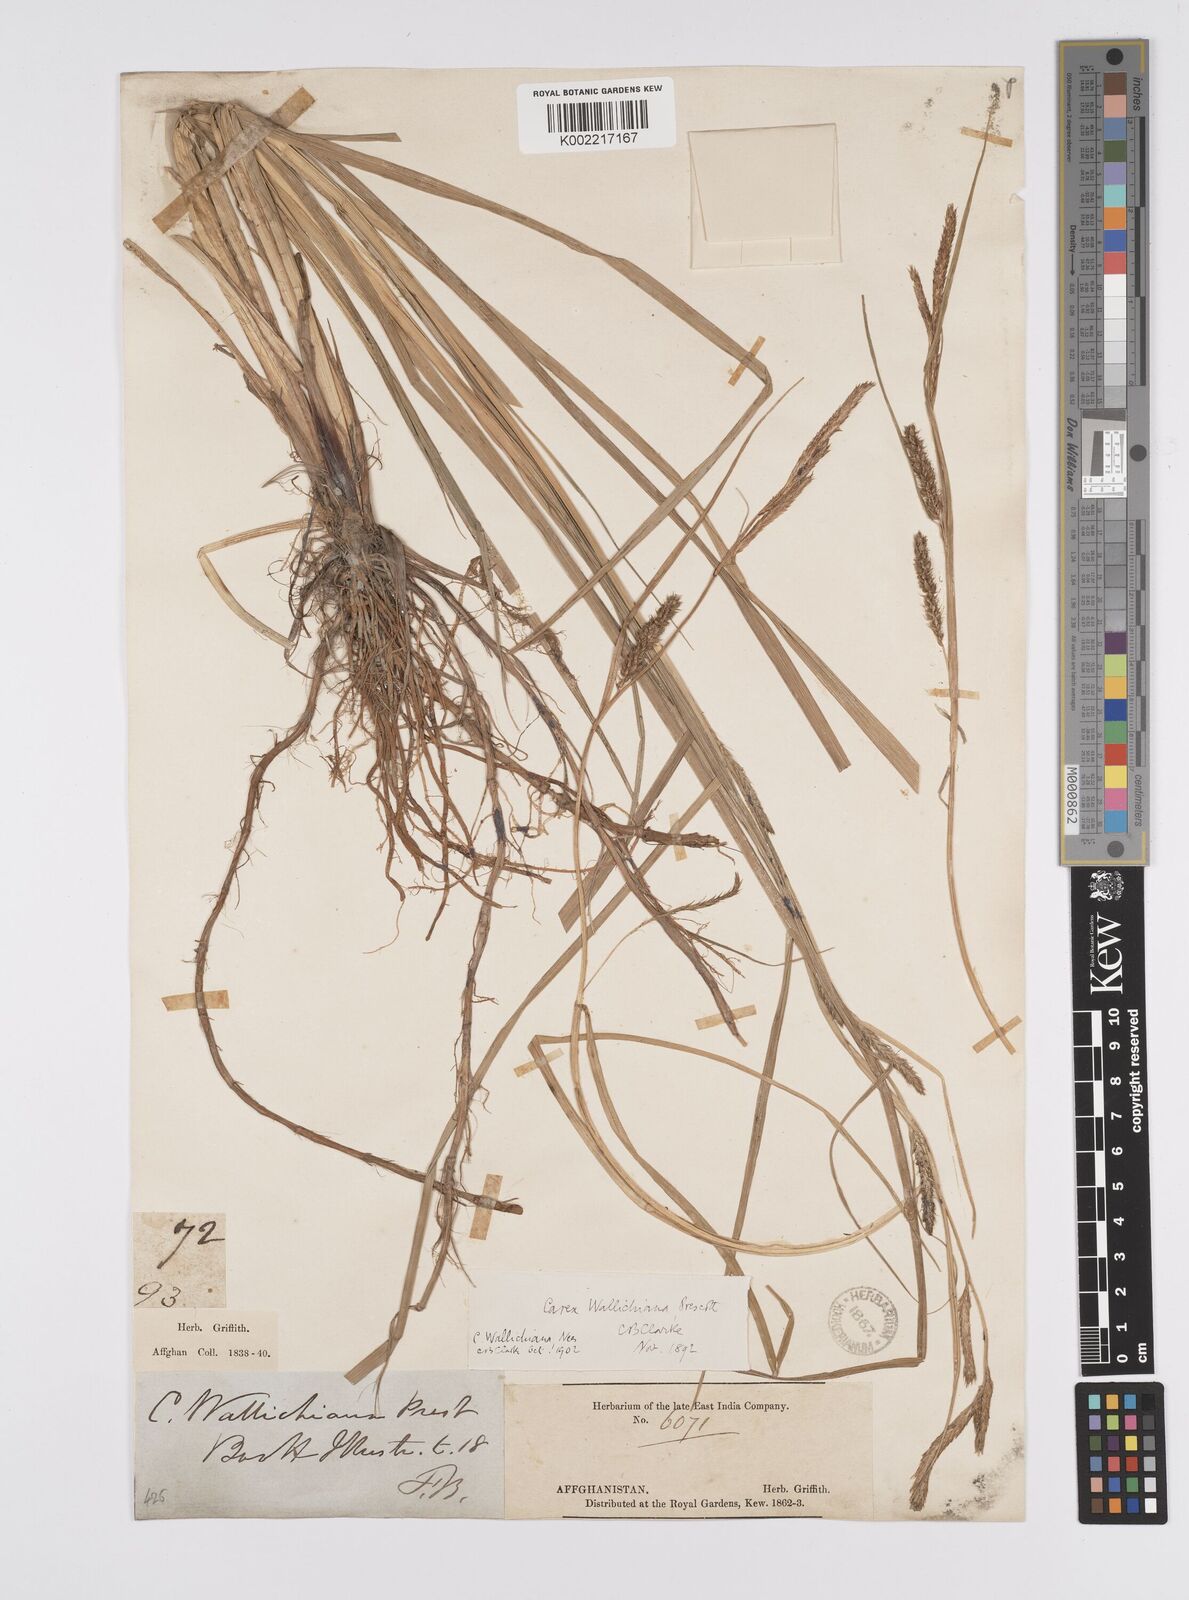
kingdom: Plantae
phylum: Tracheophyta
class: Liliopsida
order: Poales
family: Cyperaceae
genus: Carex
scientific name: Carex fedia
